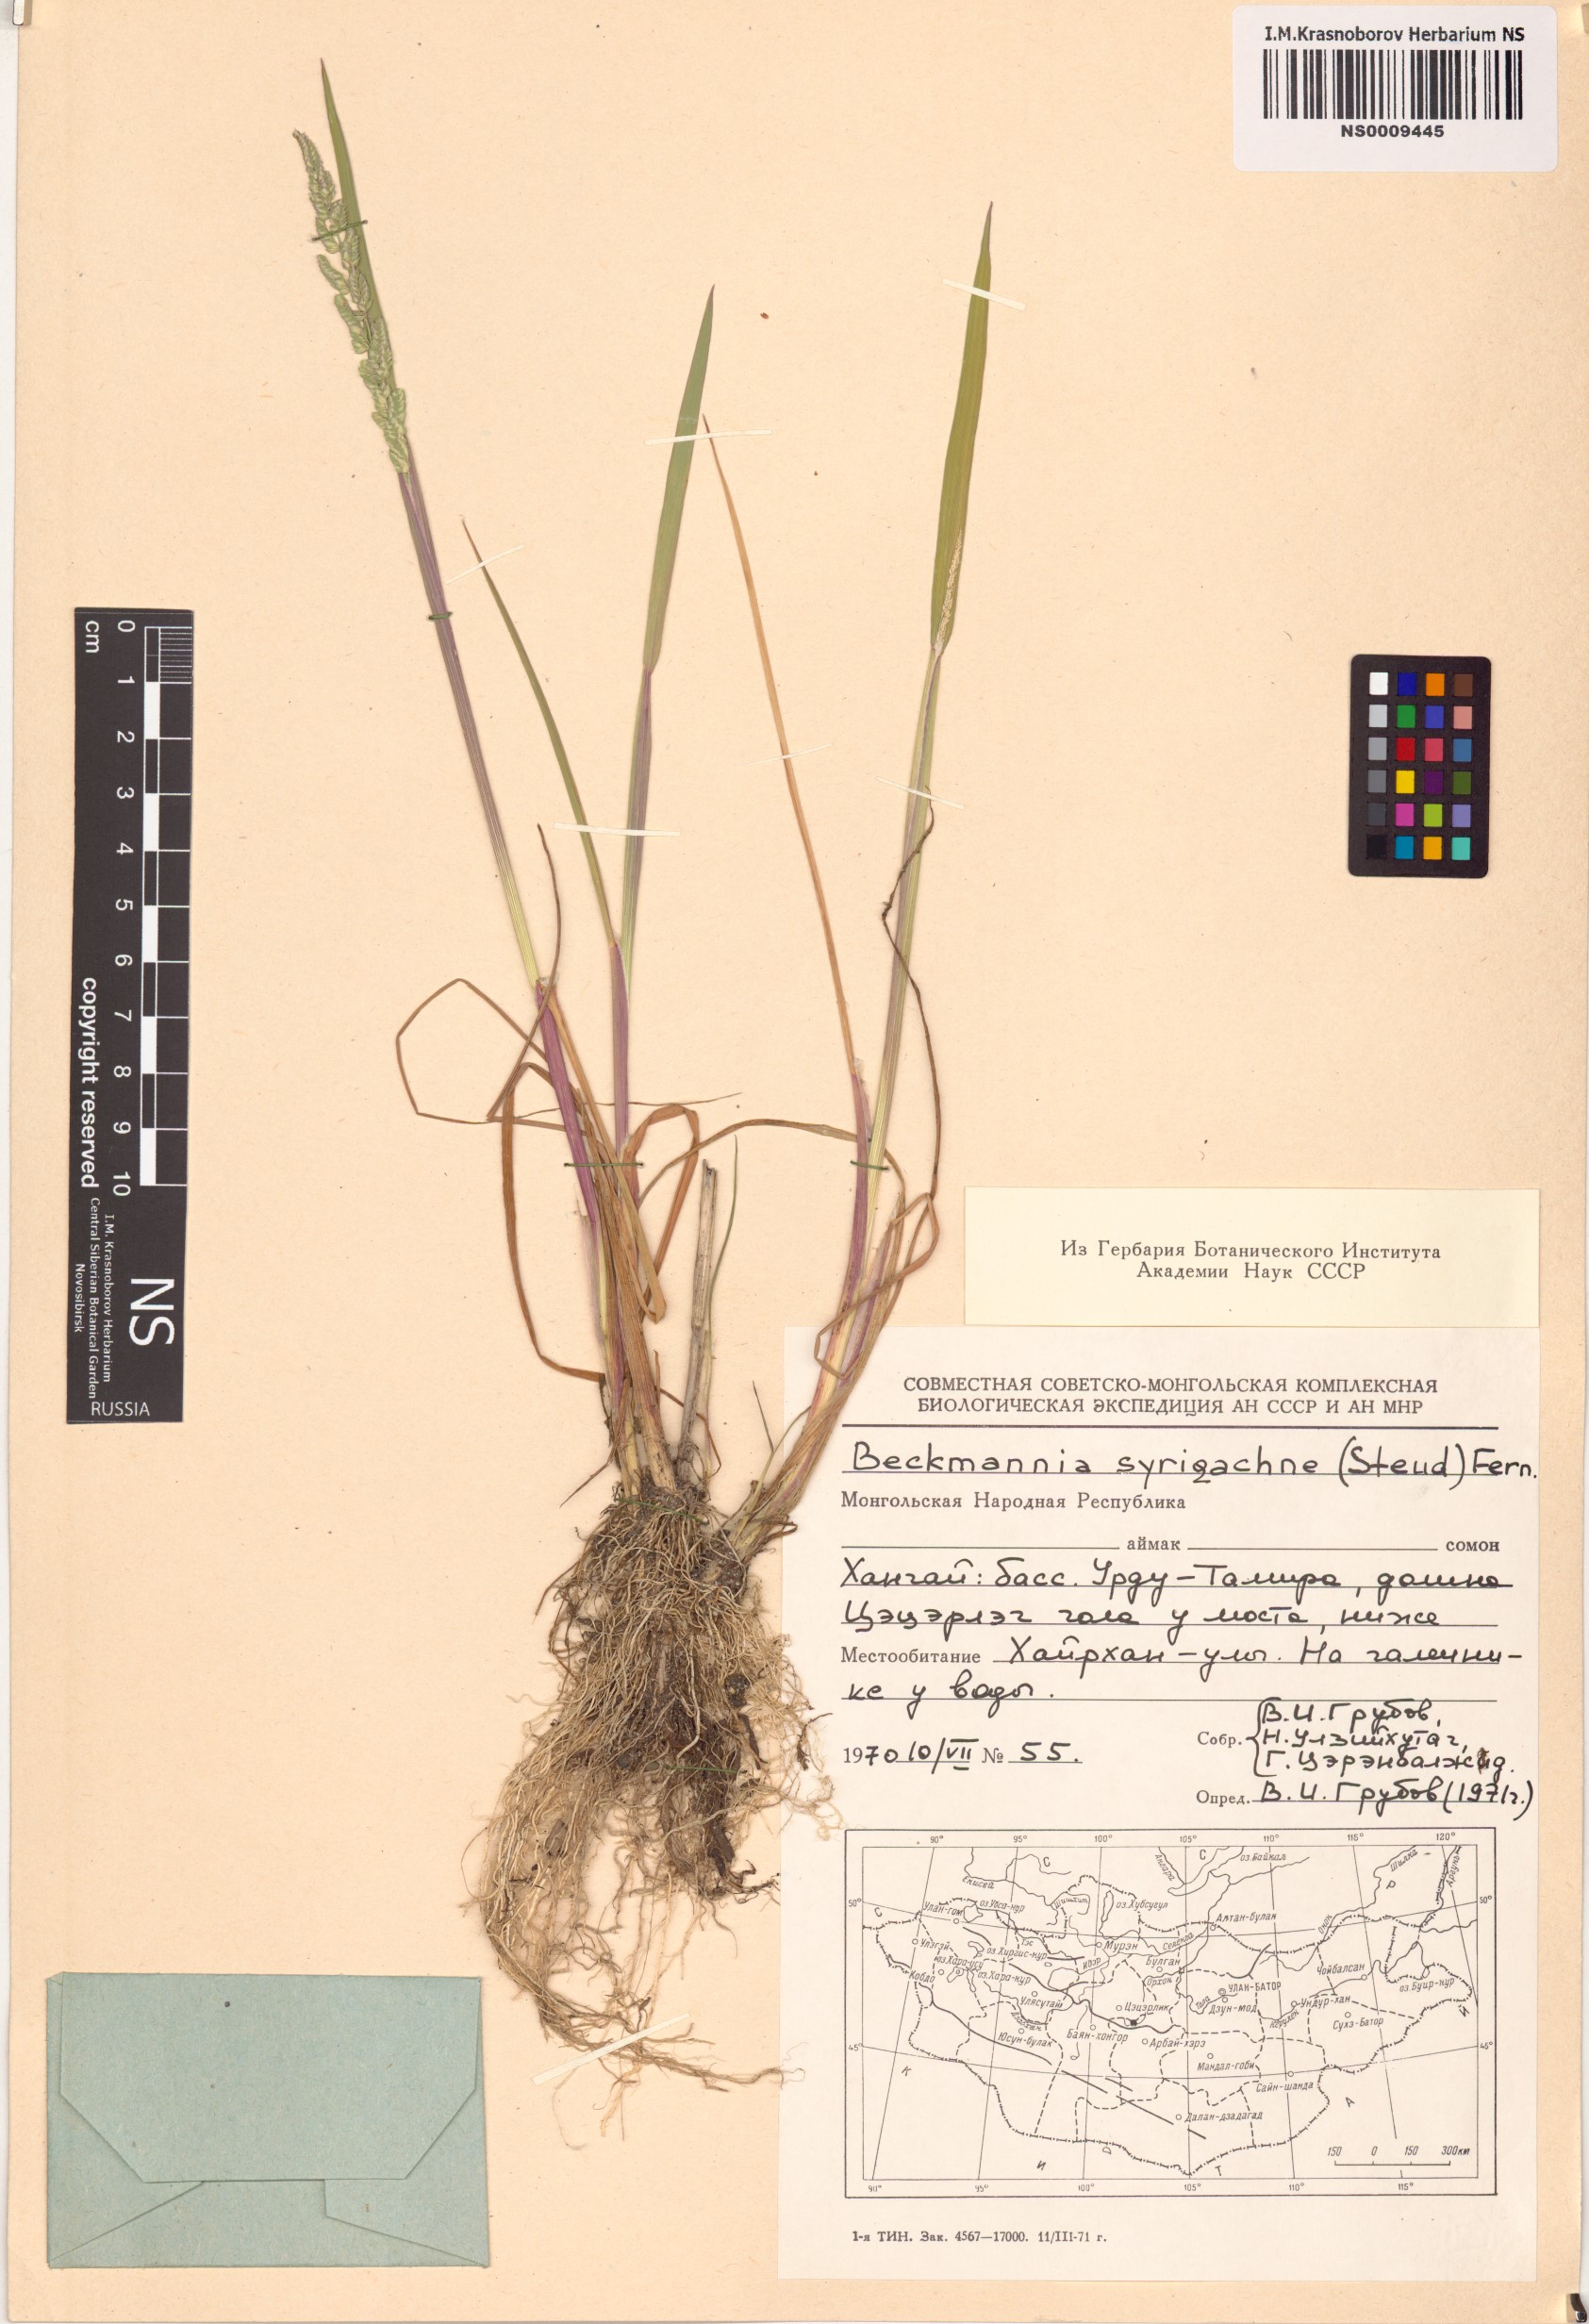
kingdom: Plantae
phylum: Tracheophyta
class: Liliopsida
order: Poales
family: Poaceae
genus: Beckmannia
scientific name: Beckmannia syzigachne
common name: American slough-grass
